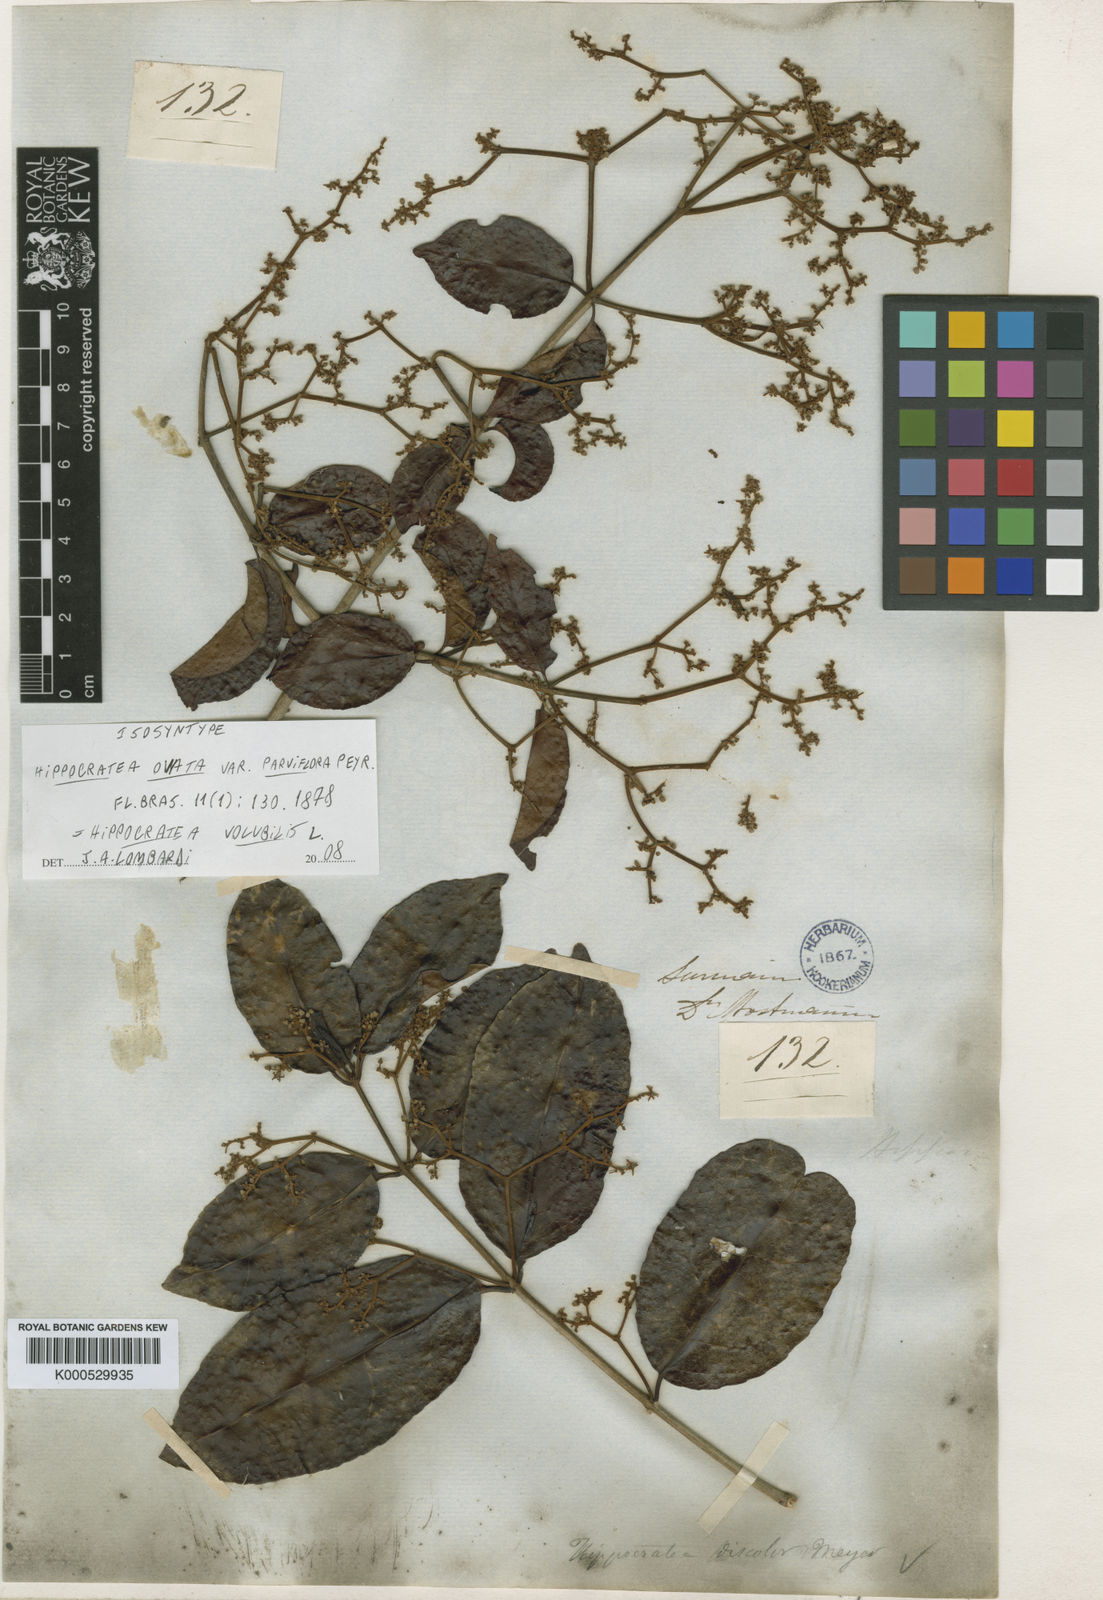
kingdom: Plantae
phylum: Tracheophyta
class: Magnoliopsida
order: Celastrales
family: Celastraceae
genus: Hippocratea
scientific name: Hippocratea volubilis
